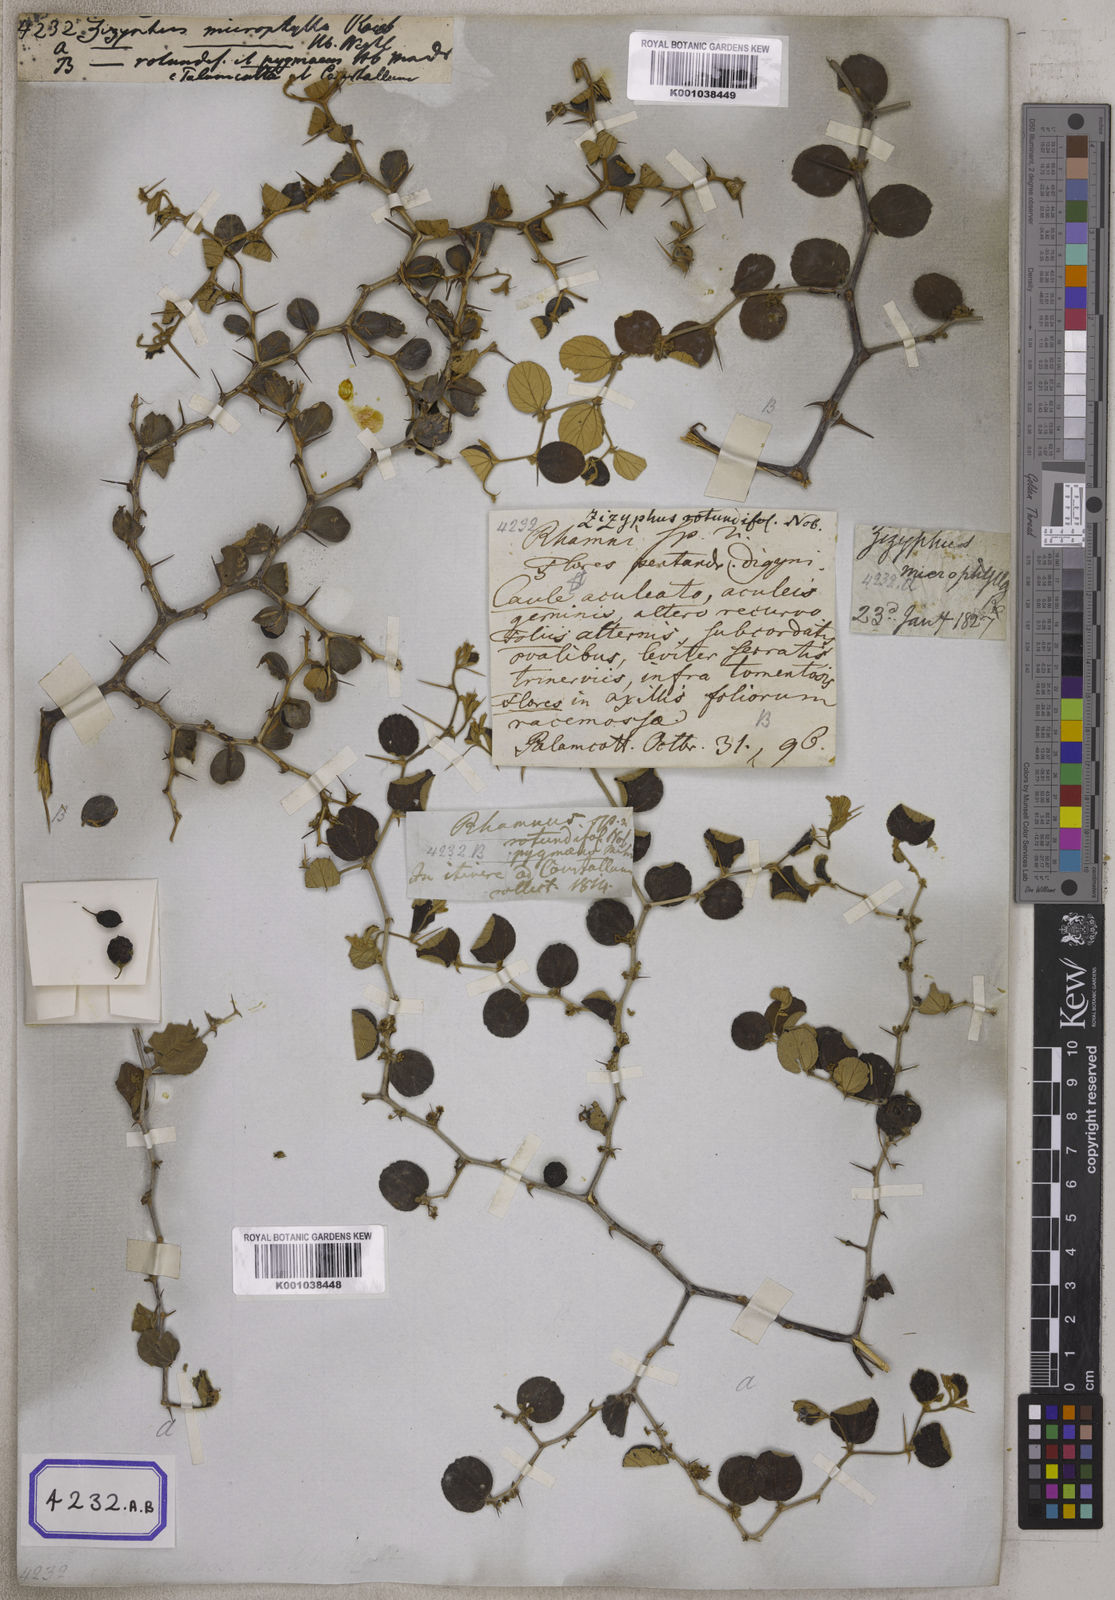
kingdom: Plantae
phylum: Tracheophyta
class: Magnoliopsida
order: Rosales
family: Rhamnaceae
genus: Ziziphus
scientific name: Ziziphus nummularia
